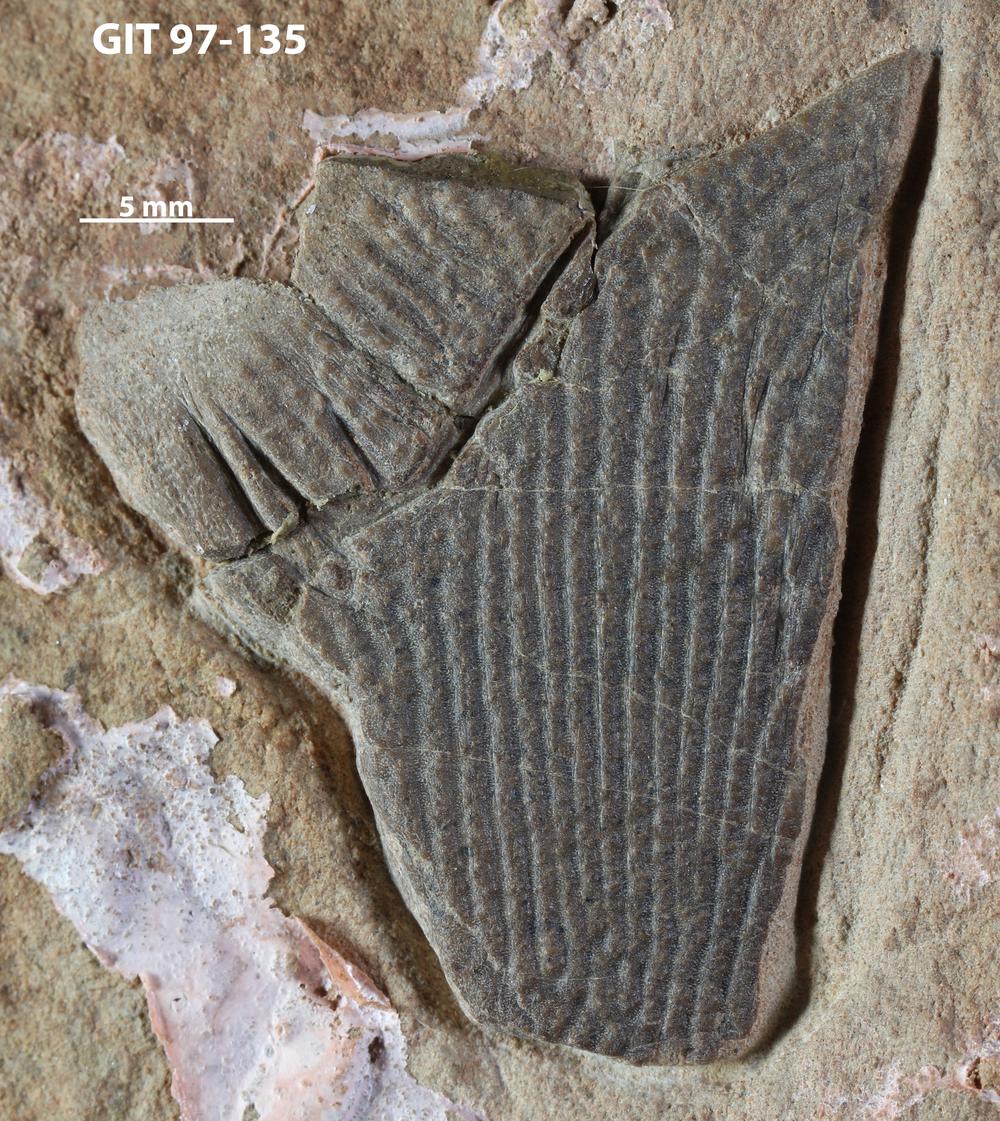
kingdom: Animalia
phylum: Chordata
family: Holonematidae
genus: Holonema
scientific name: Holonema
